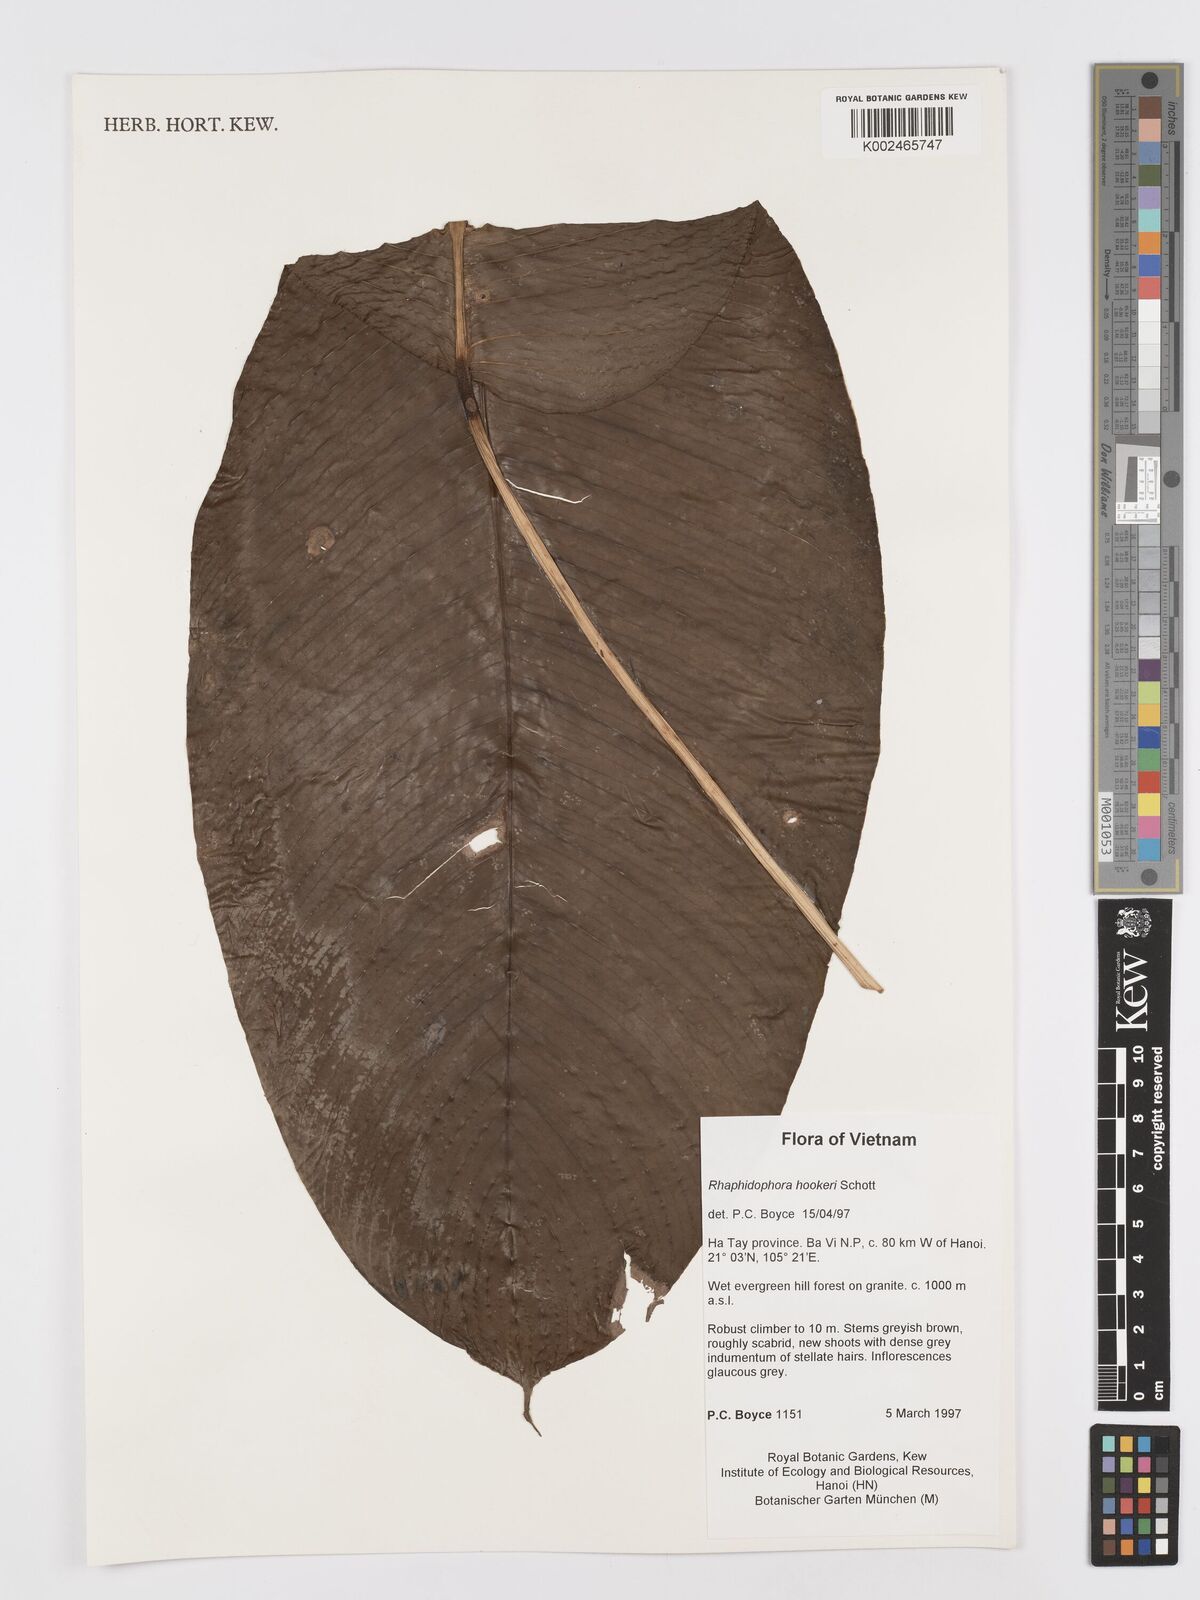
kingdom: Plantae
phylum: Tracheophyta
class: Liliopsida
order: Alismatales
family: Araceae
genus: Rhaphidophora
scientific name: Rhaphidophora
